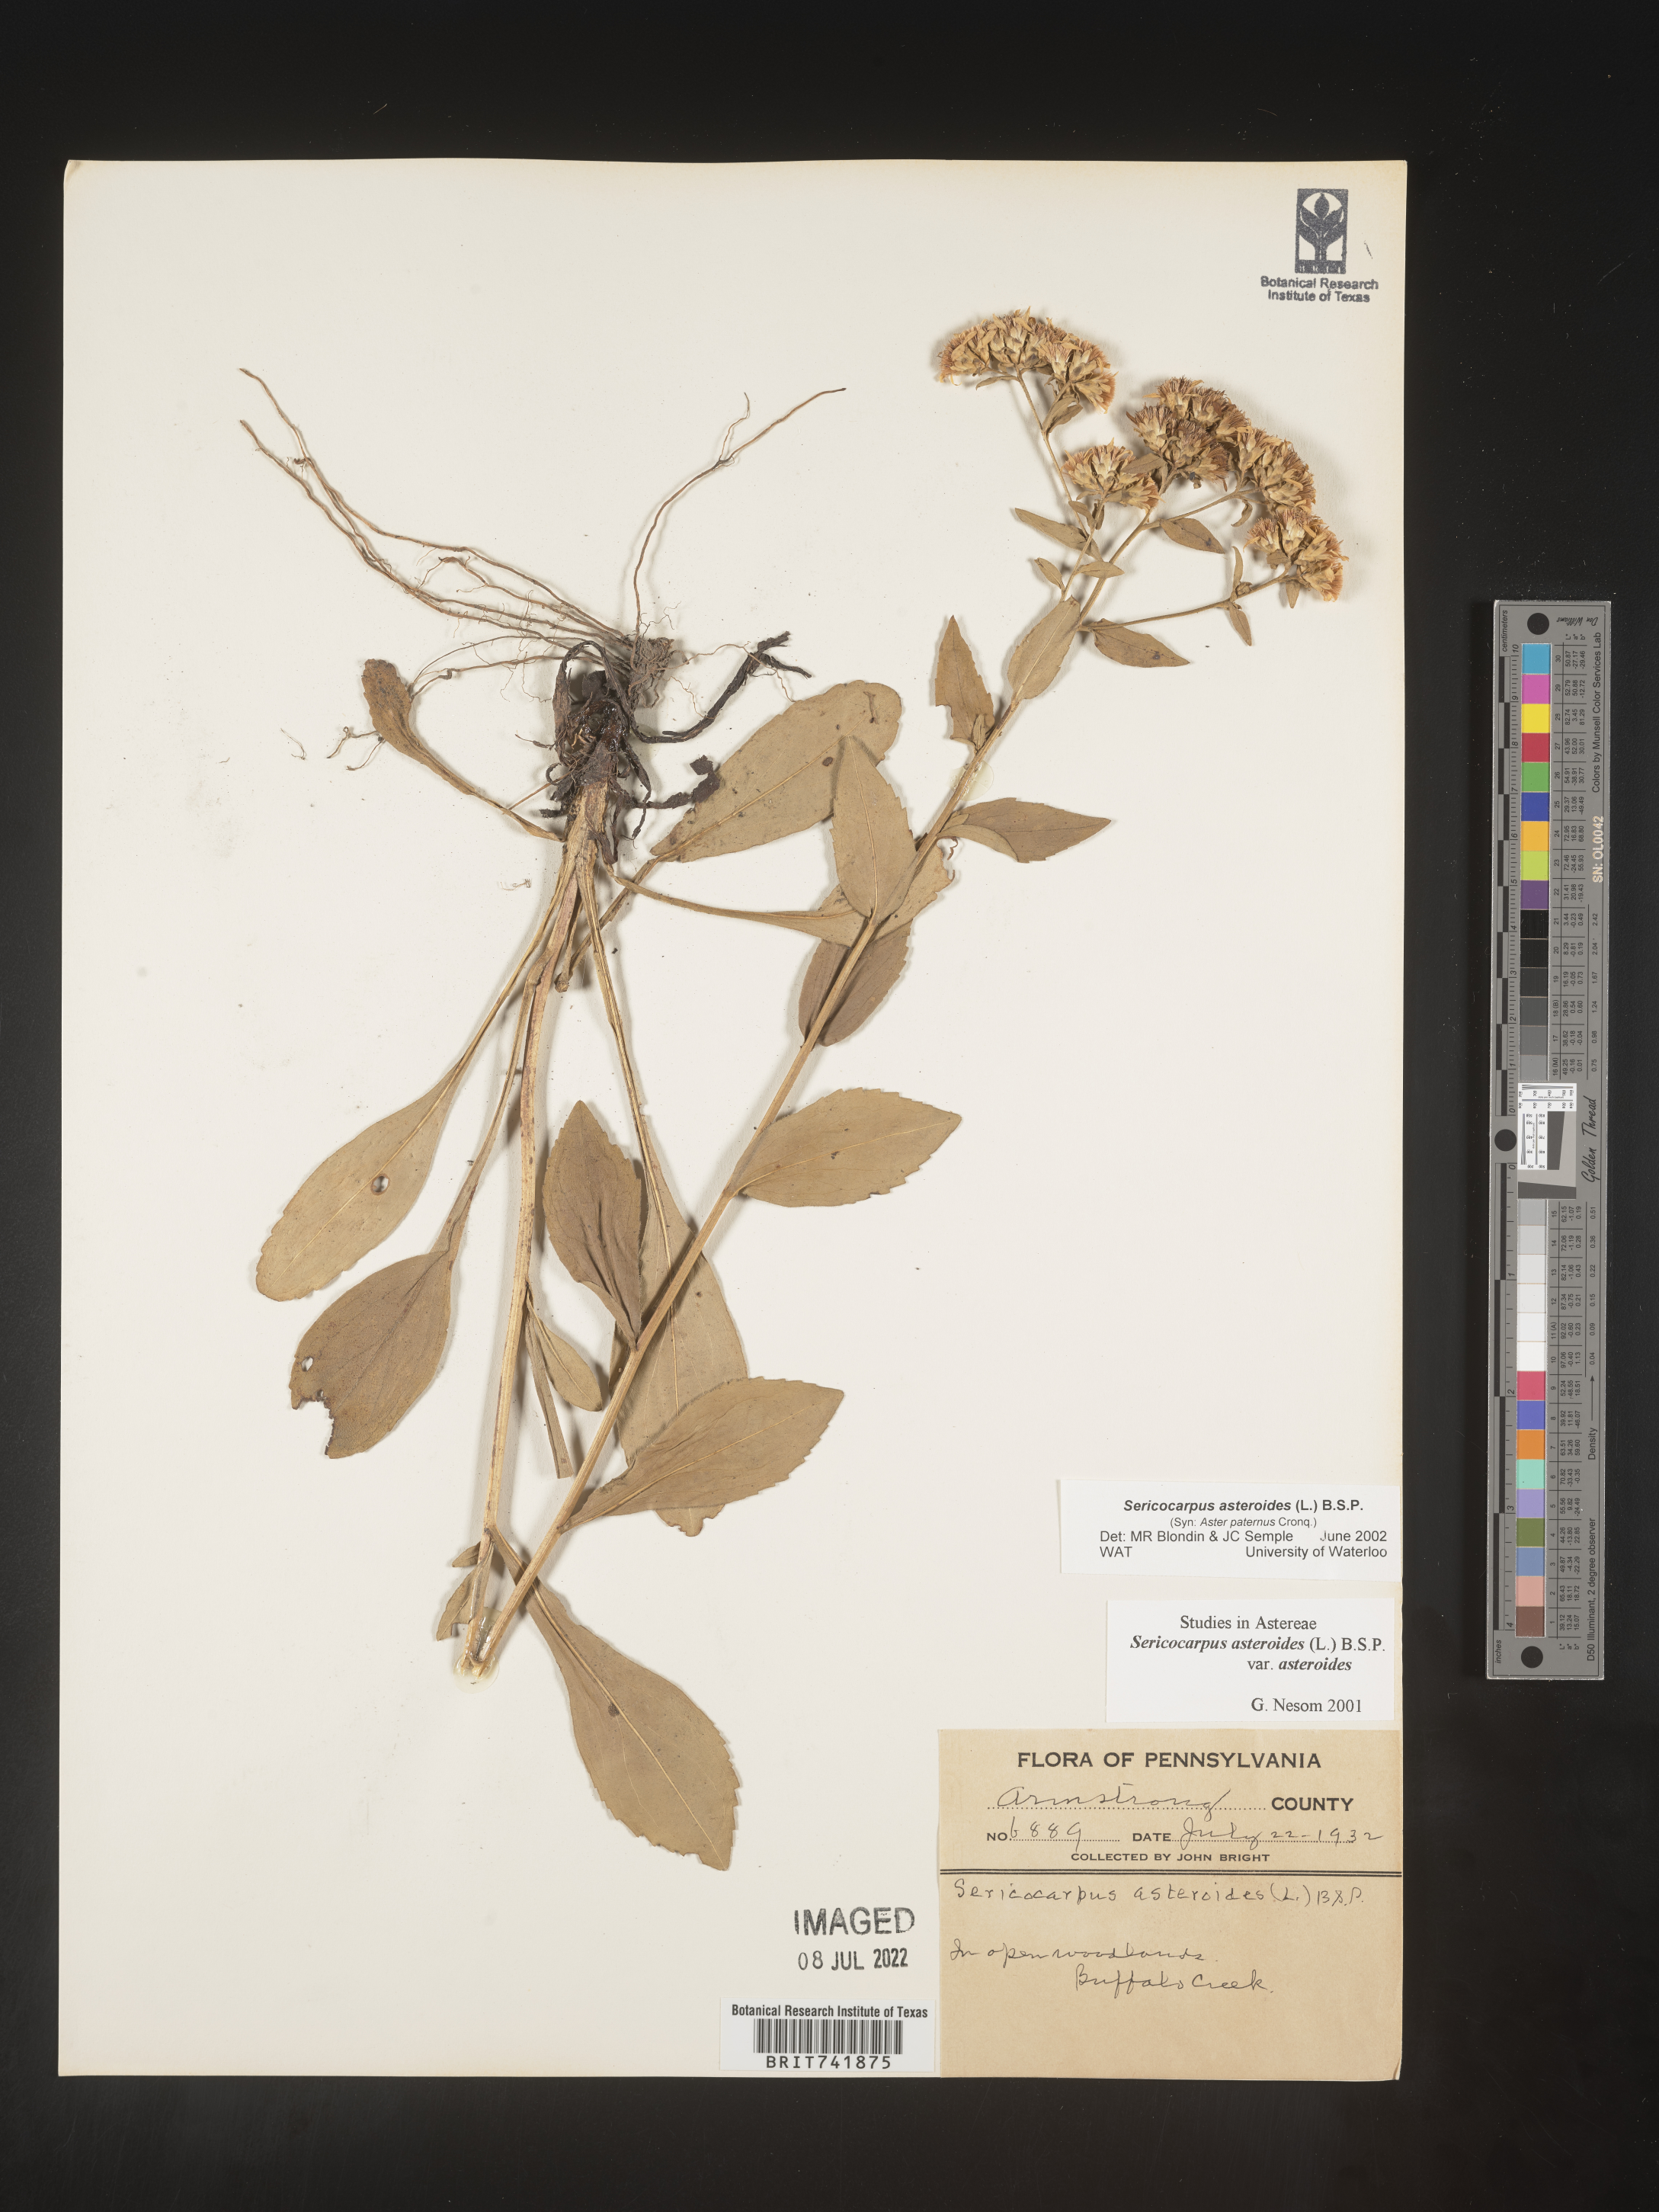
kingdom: Plantae
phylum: Tracheophyta
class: Magnoliopsida
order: Asterales
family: Asteraceae
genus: Sericocarpus
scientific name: Sericocarpus asteroides
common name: Toothed white-top aster
